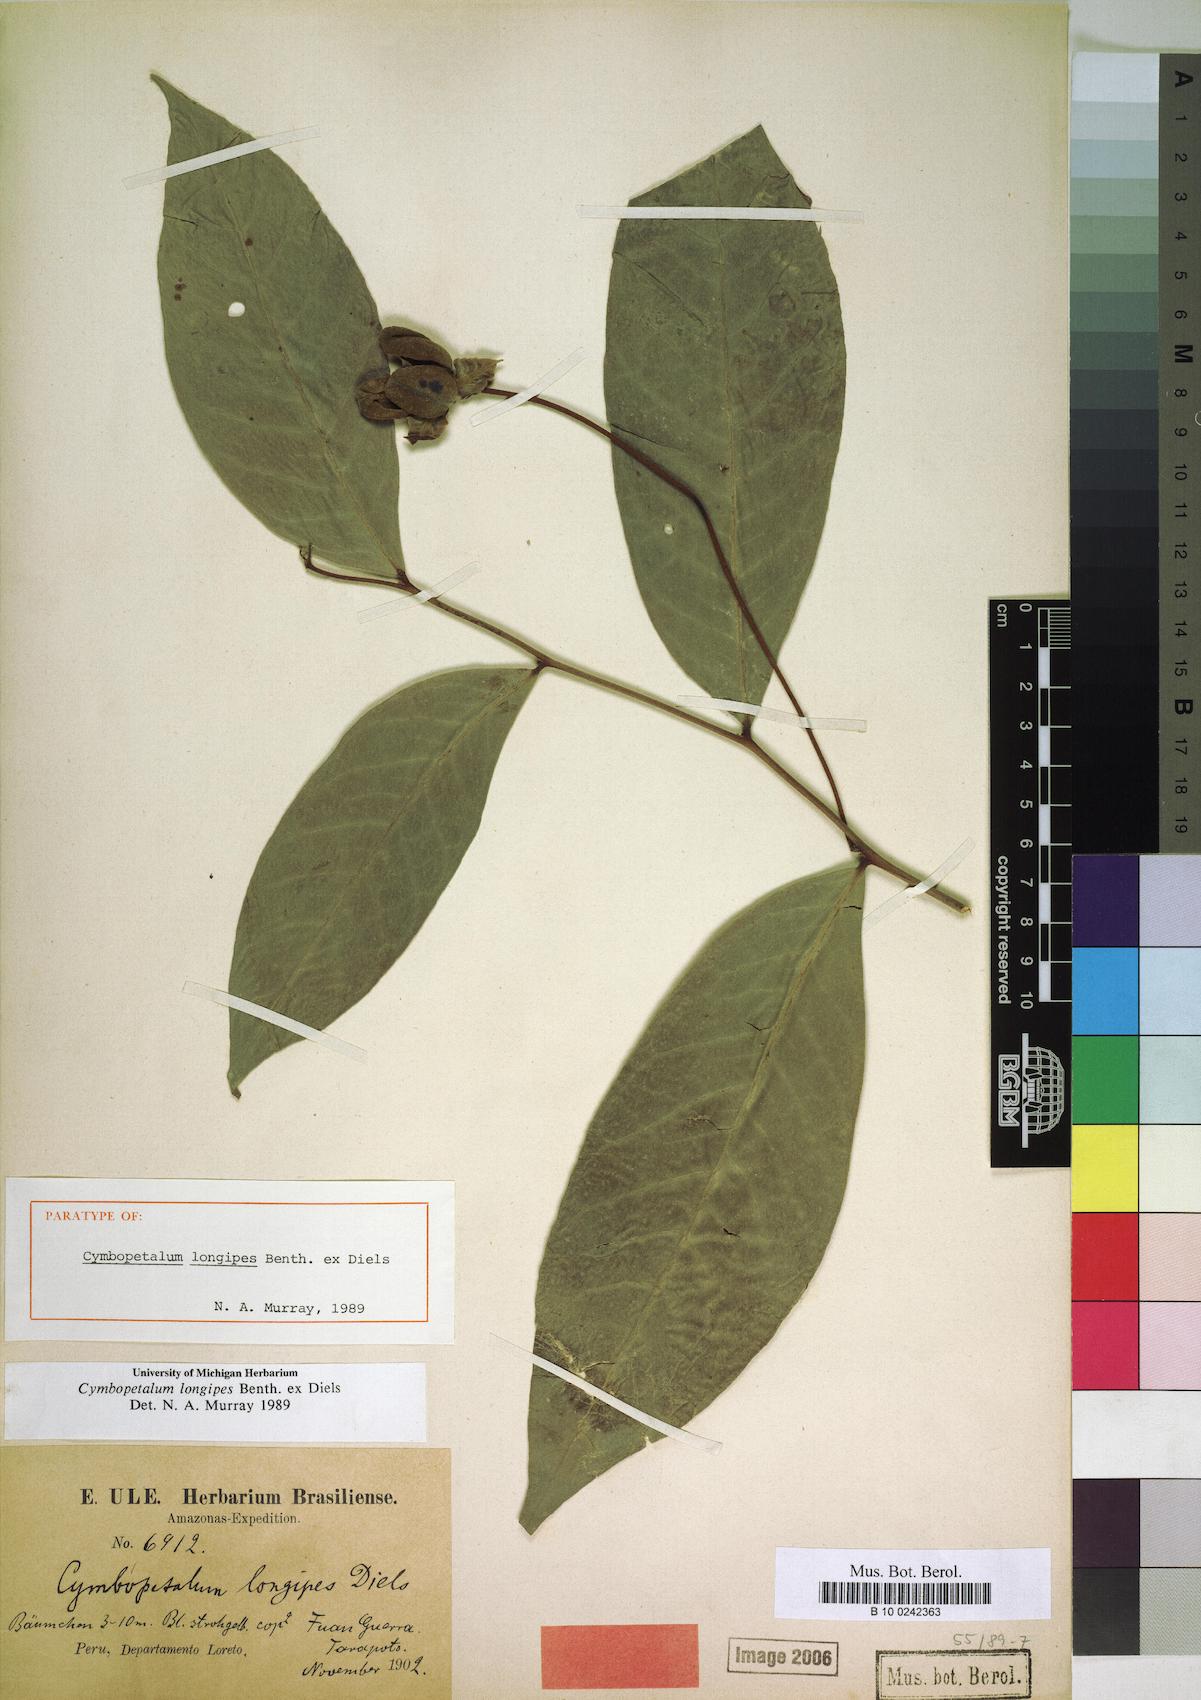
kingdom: Plantae
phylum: Tracheophyta
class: Magnoliopsida
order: Magnoliales
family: Annonaceae
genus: Cymbopetalum
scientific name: Cymbopetalum longipes
